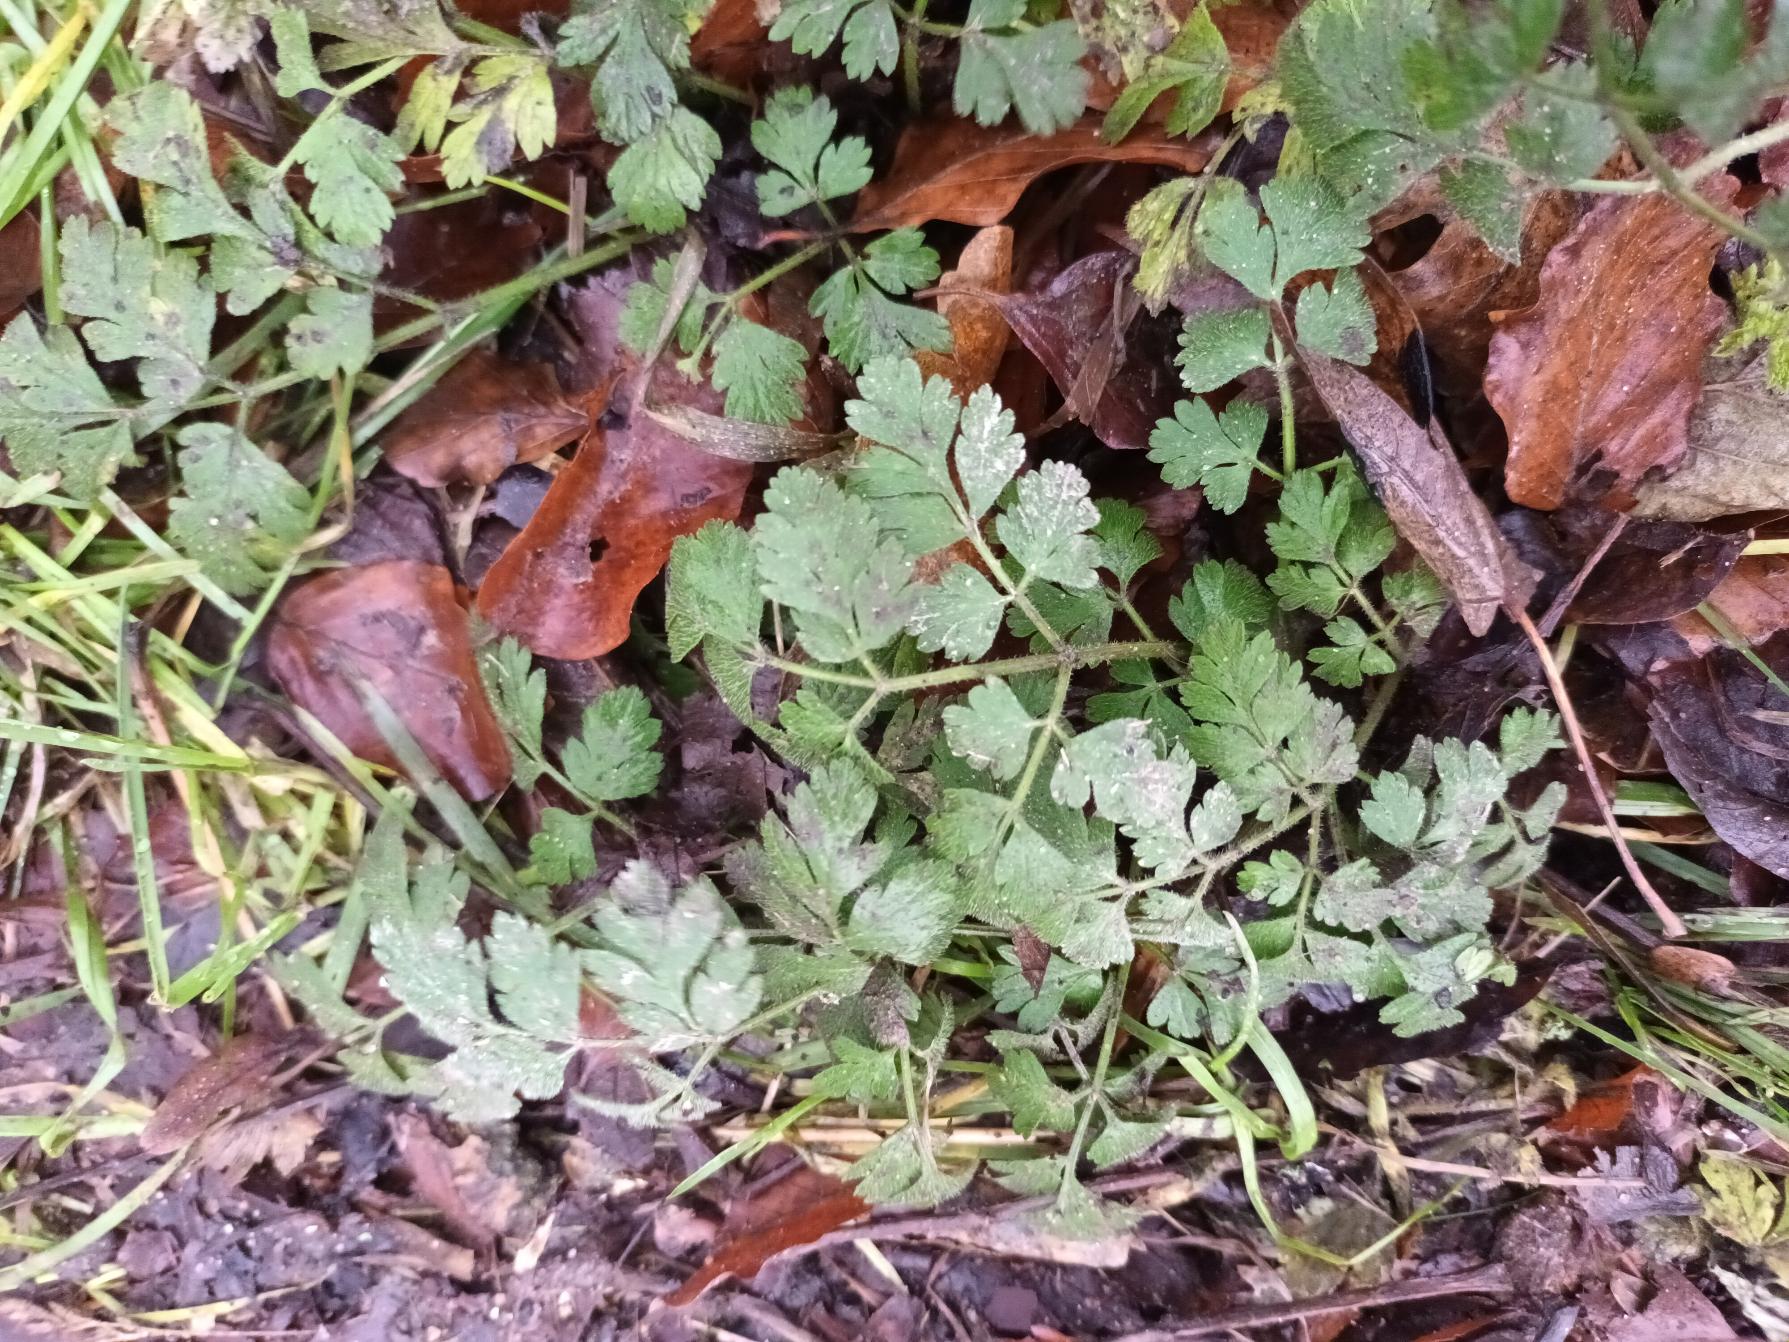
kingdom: Plantae
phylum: Tracheophyta
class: Magnoliopsida
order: Apiales
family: Apiaceae
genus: Chaerophyllum
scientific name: Chaerophyllum temulum
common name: Almindelig hulsvøb
